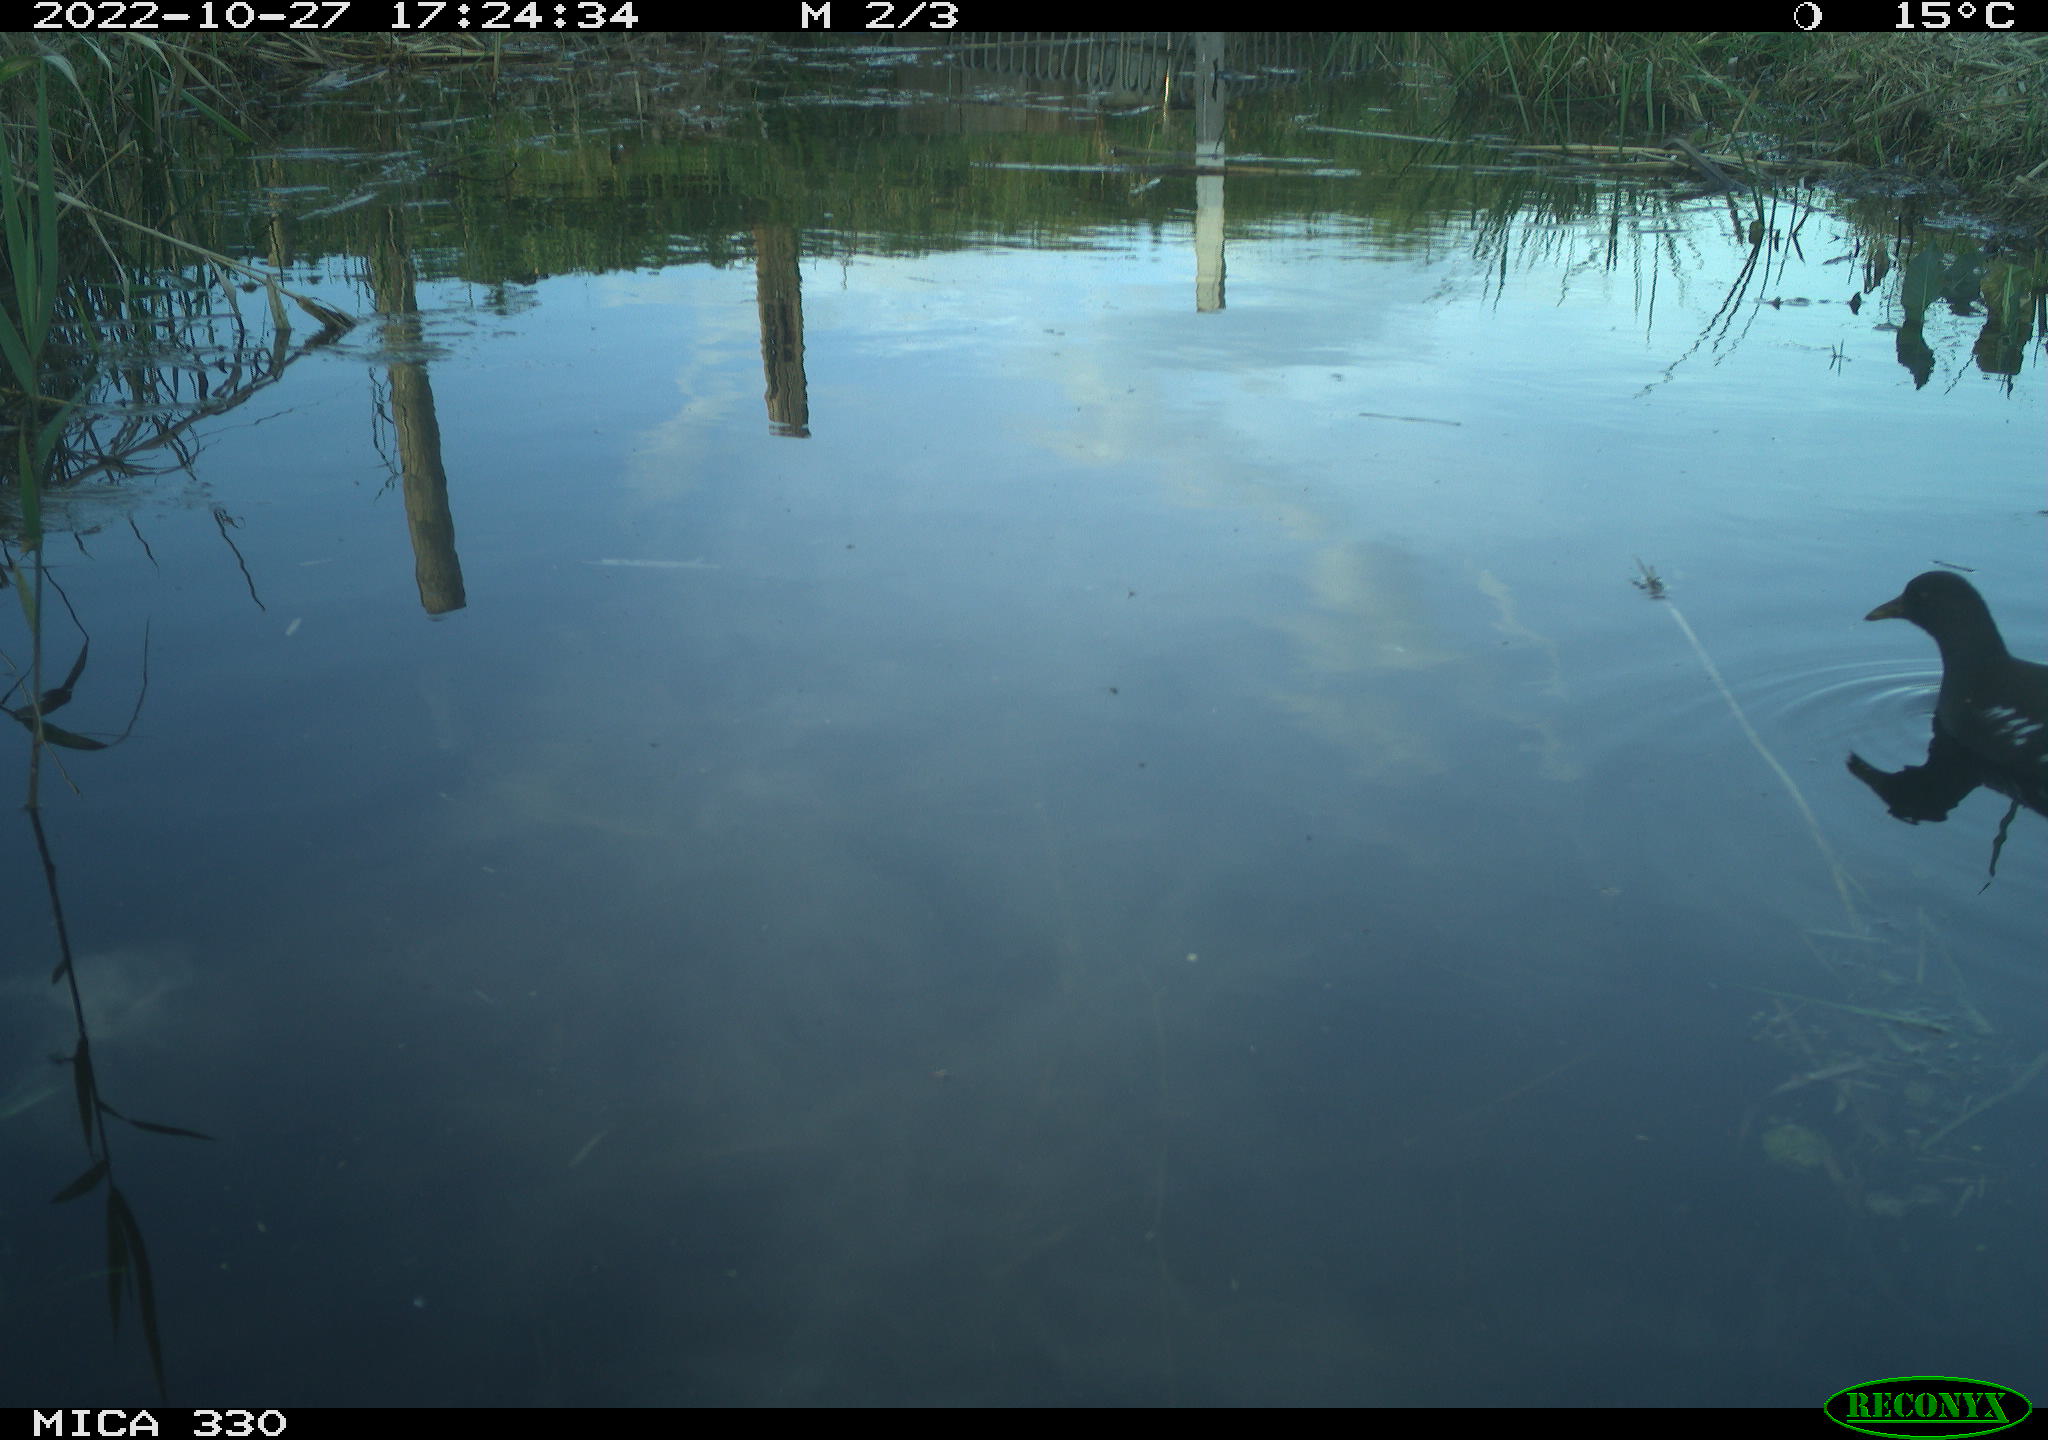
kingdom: Animalia
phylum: Chordata
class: Aves
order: Gruiformes
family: Rallidae
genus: Gallinula
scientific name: Gallinula chloropus
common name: Common moorhen
